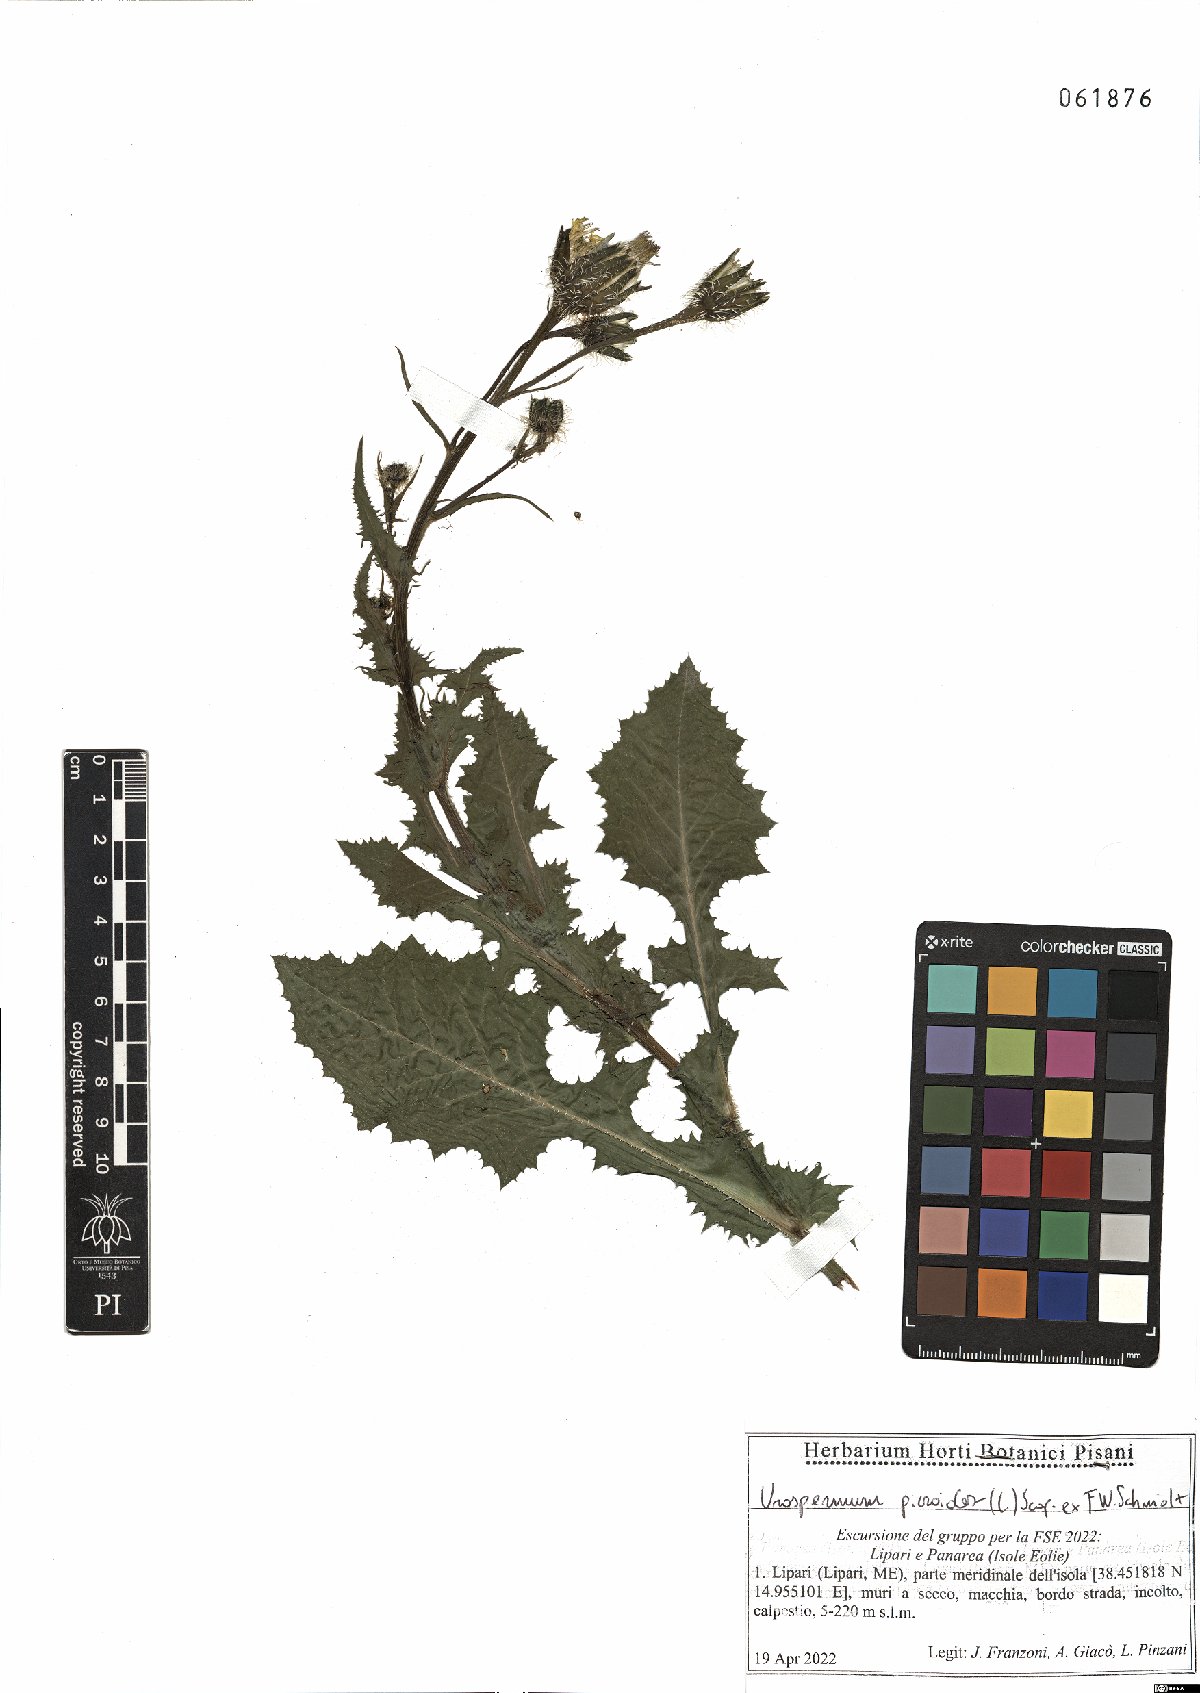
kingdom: Plantae
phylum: Tracheophyta
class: Magnoliopsida
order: Asterales
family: Asteraceae
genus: Urospermum
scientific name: Urospermum picroides
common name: False hawkbit
